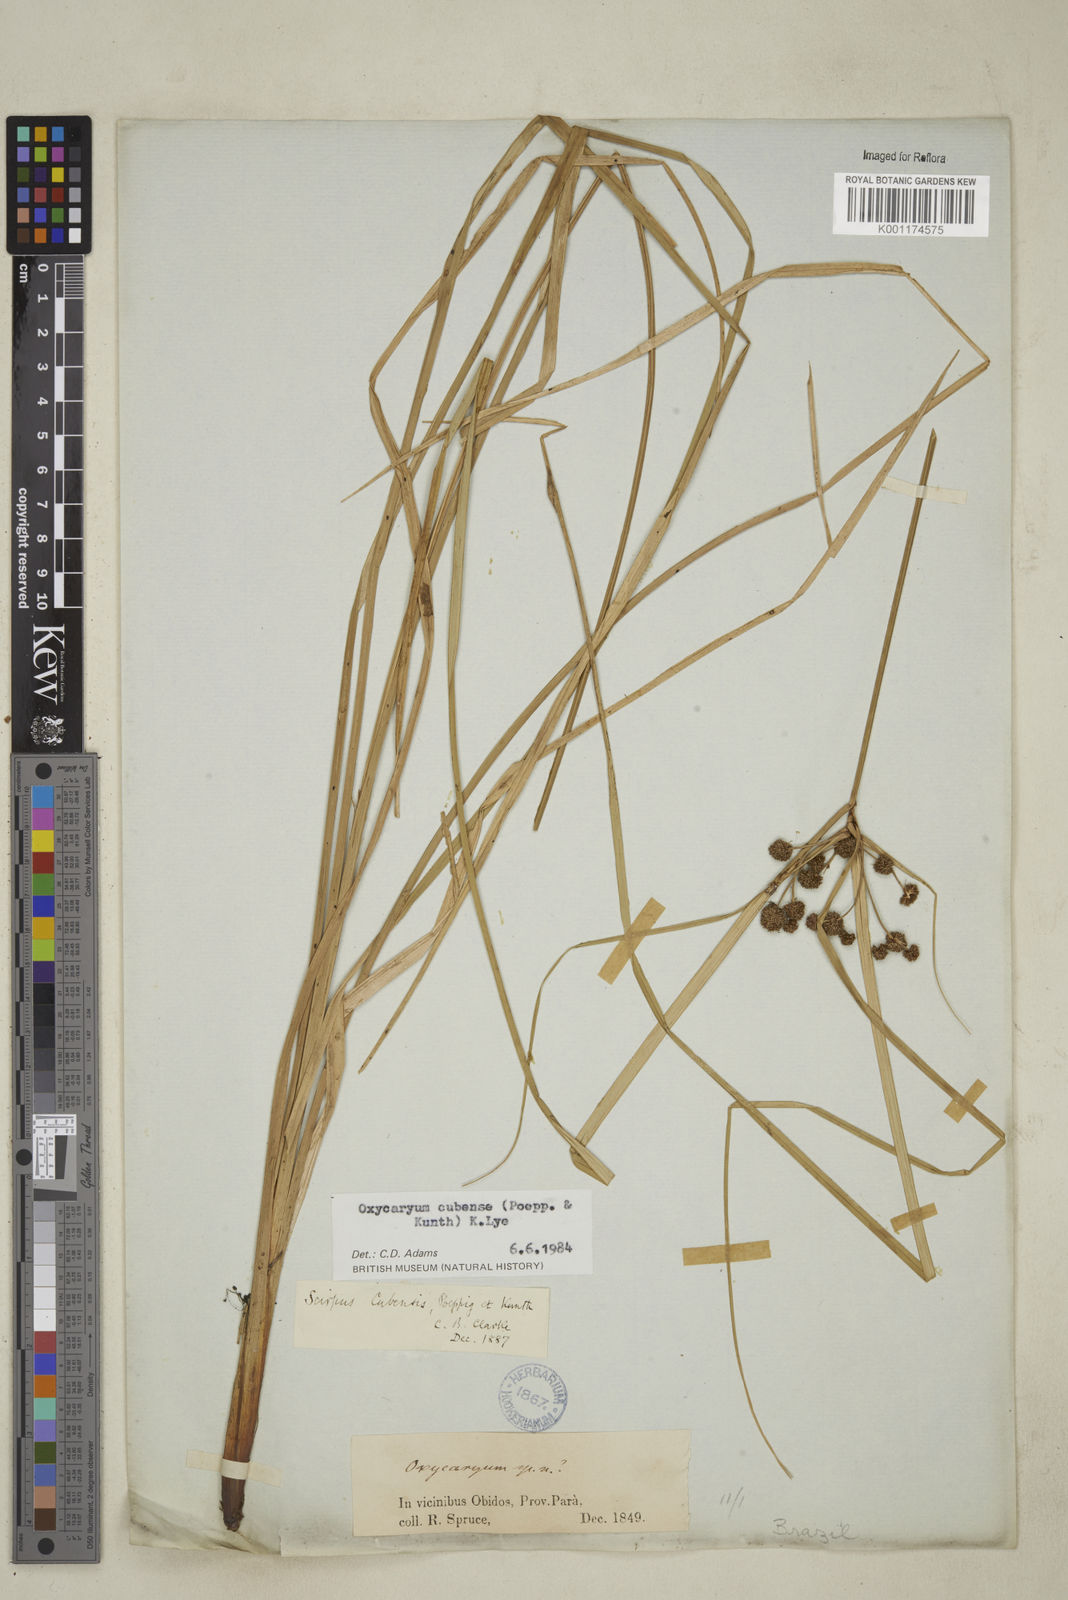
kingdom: Plantae
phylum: Tracheophyta
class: Liliopsida
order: Poales
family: Cyperaceae
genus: Cyperus
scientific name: Cyperus elegans
